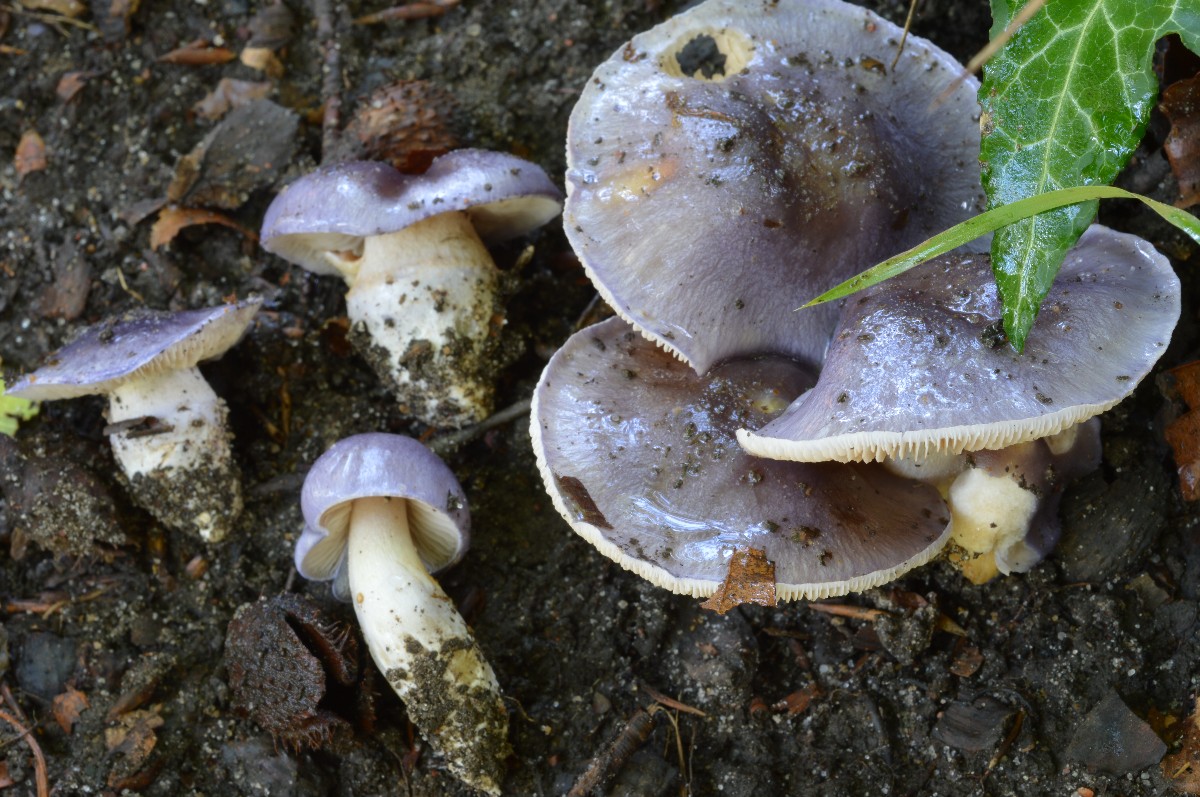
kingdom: Fungi
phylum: Basidiomycota
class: Agaricomycetes
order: Agaricales
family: Cortinariaceae
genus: Thaxterogaster
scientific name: Thaxterogaster croceocoeruleus
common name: blågullig slørhat
